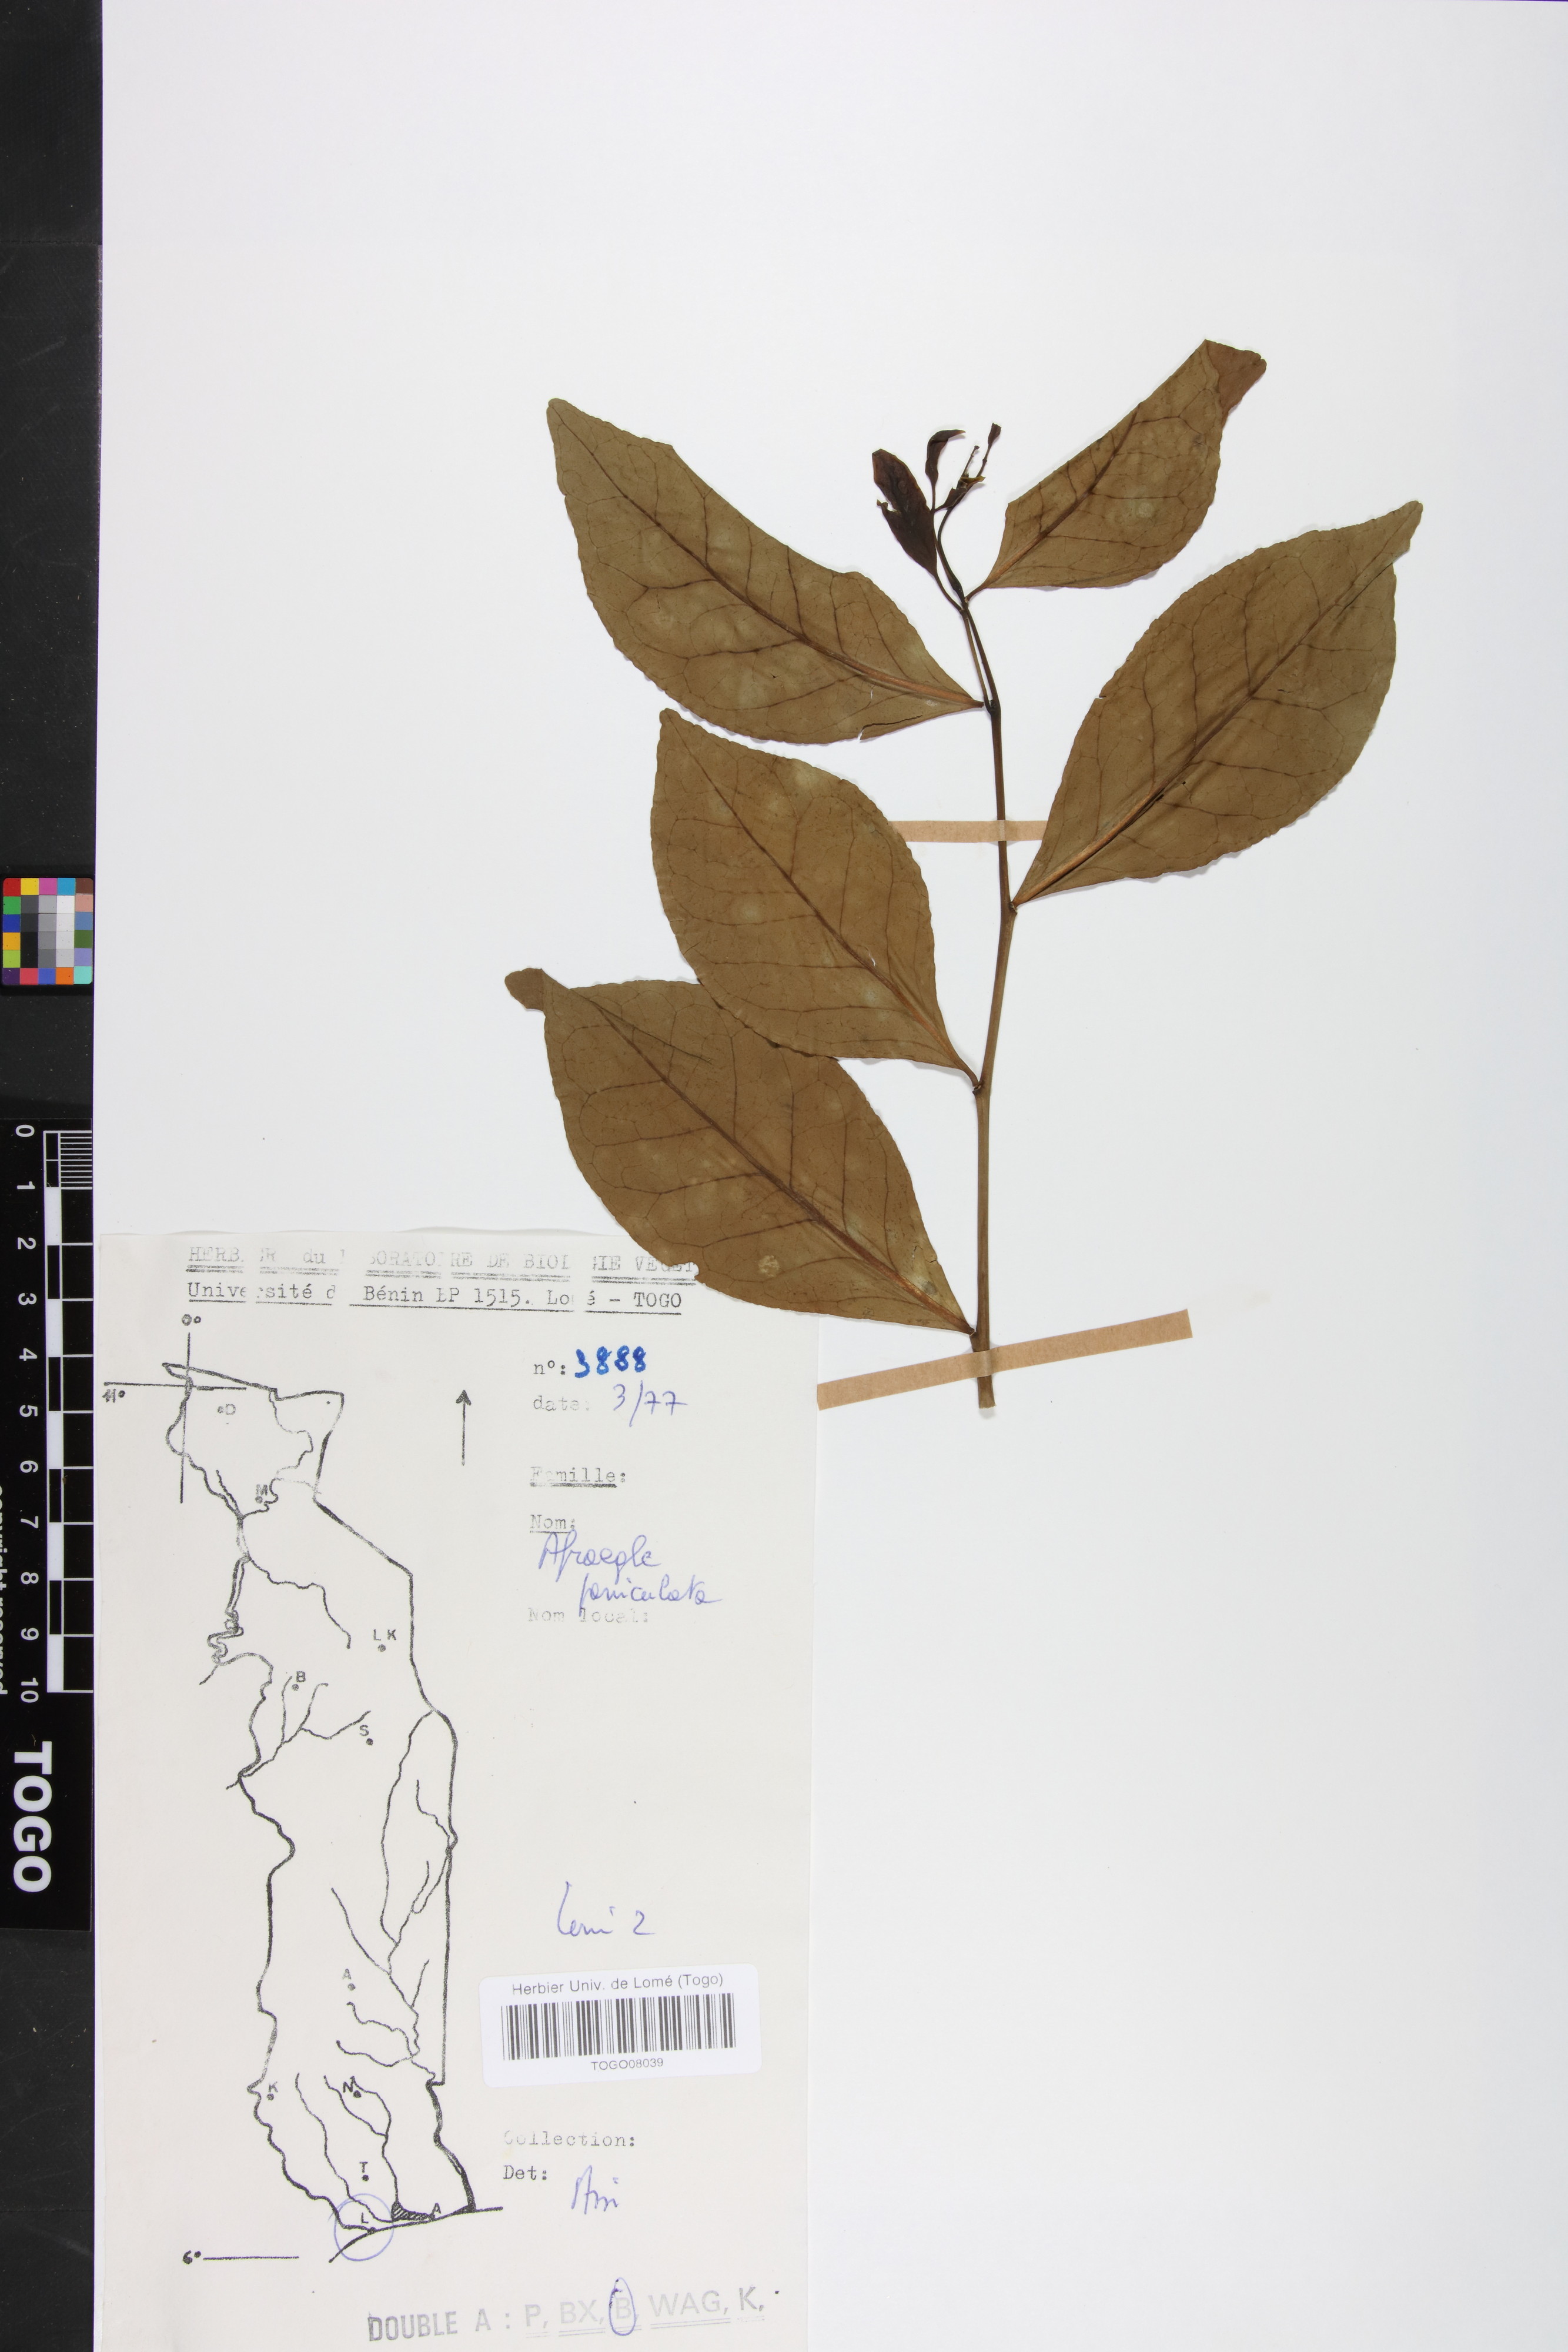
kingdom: Plantae
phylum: Tracheophyta
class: Magnoliopsida
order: Sapindales
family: Rutaceae
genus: Afraegle
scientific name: Afraegle paniculata
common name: Guin-guin
